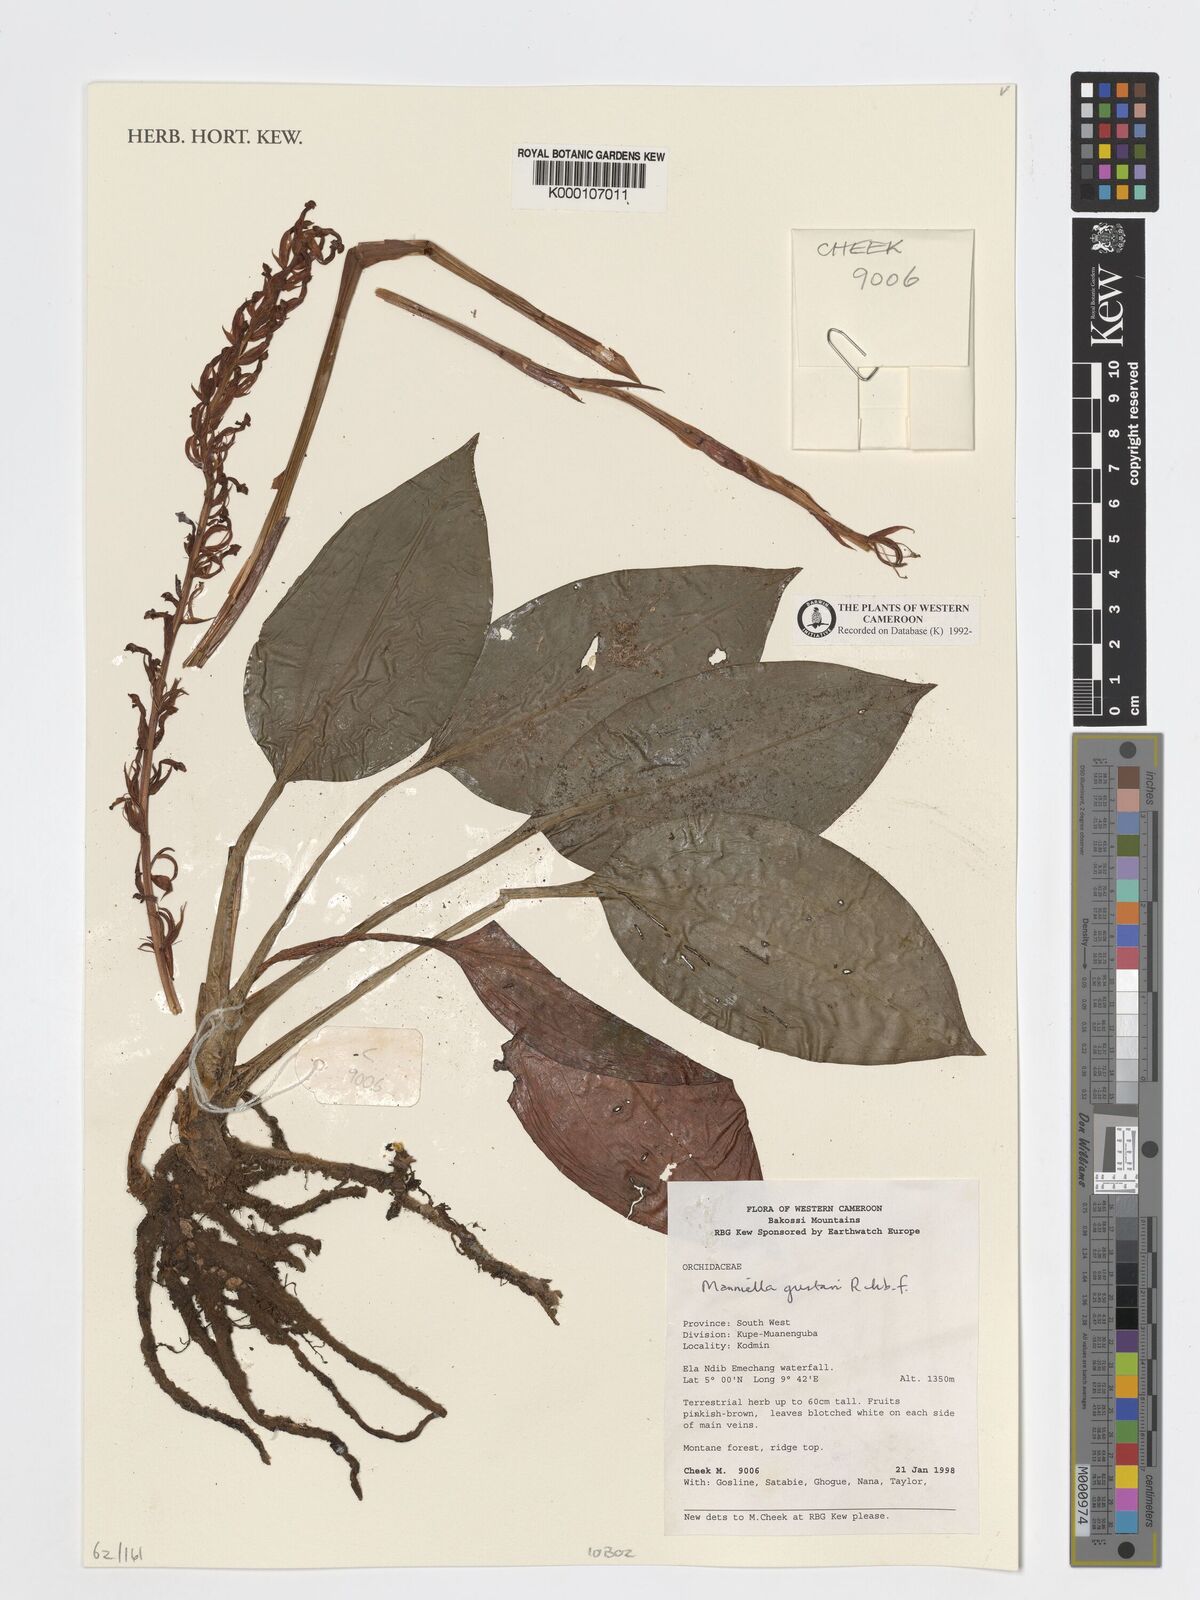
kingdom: Plantae
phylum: Tracheophyta
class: Liliopsida
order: Asparagales
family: Orchidaceae
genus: Manniella
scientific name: Manniella gustavi
